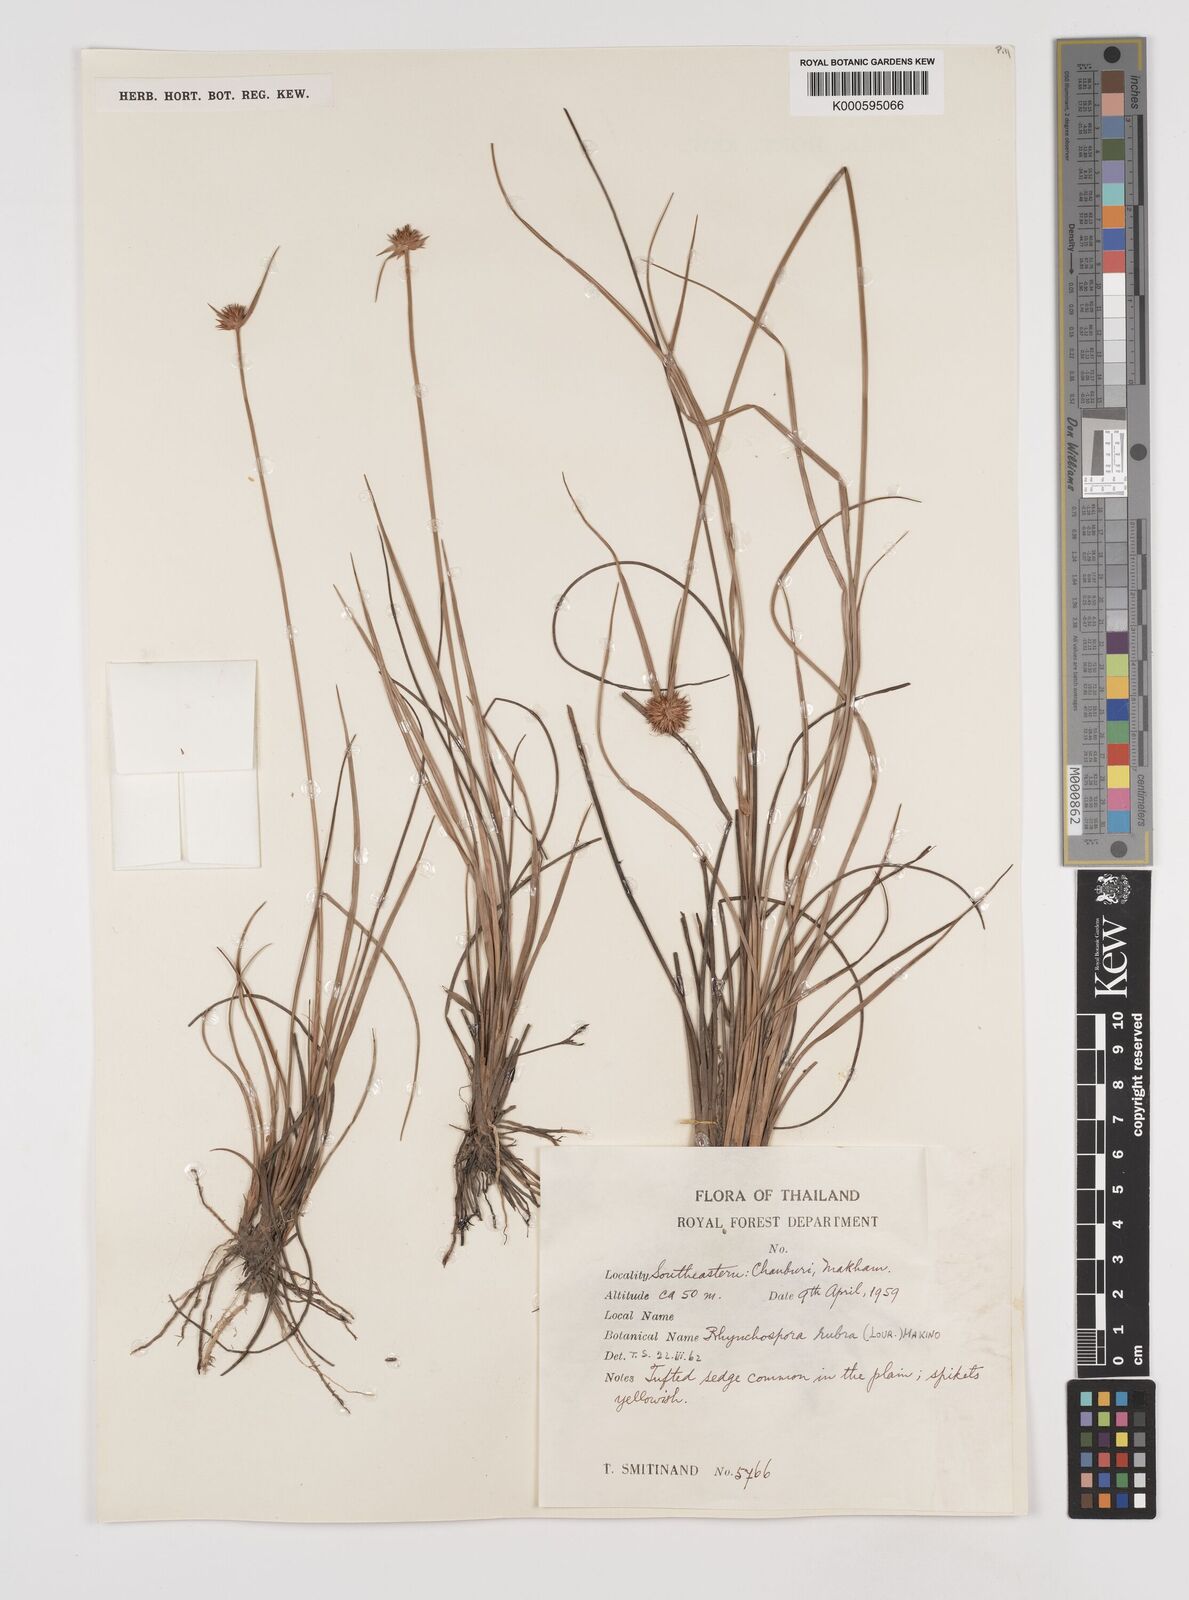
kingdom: Plantae
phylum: Tracheophyta
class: Liliopsida
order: Poales
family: Cyperaceae
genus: Rhynchospora
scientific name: Rhynchospora rubra
